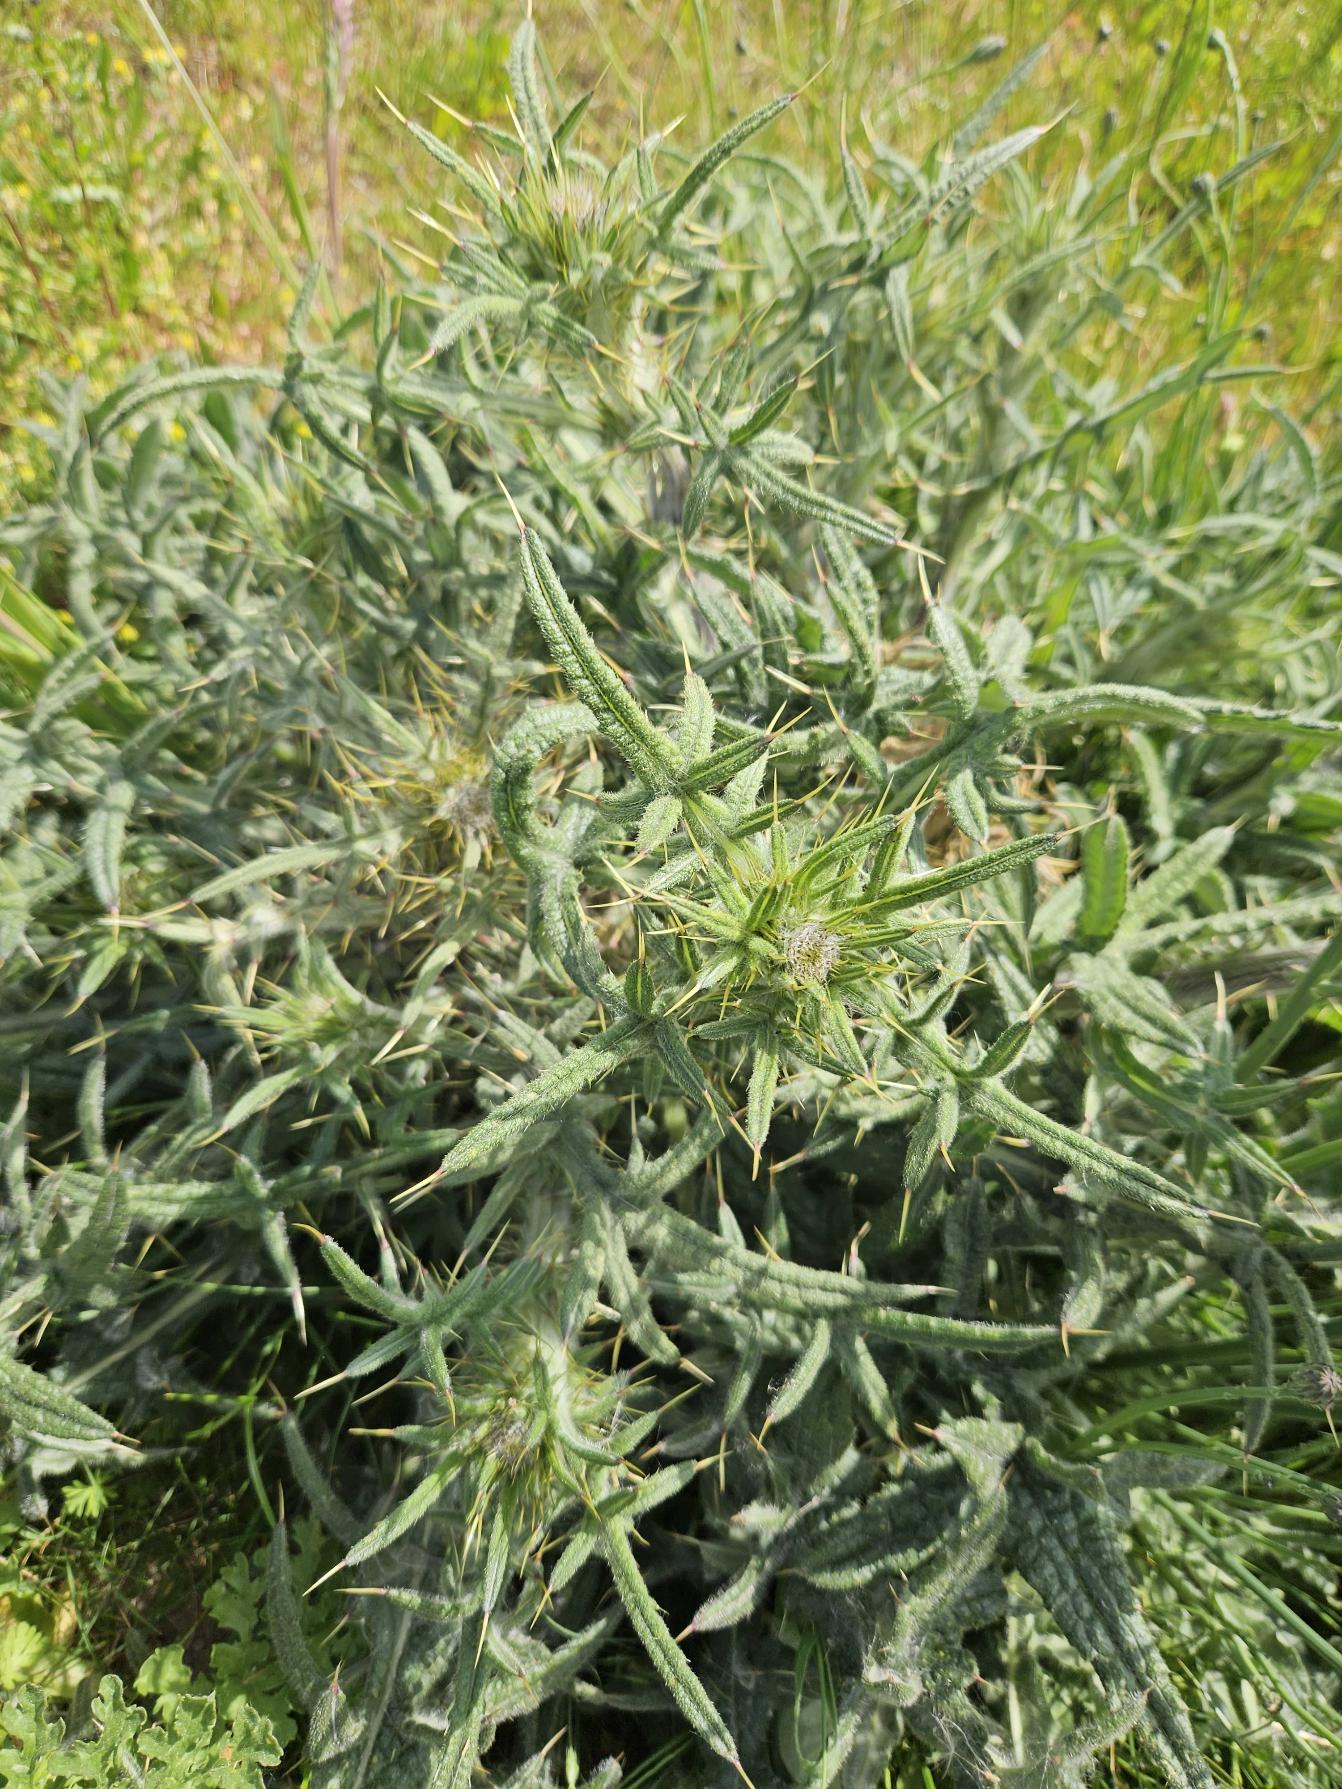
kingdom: Plantae
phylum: Tracheophyta
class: Magnoliopsida
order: Asterales
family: Asteraceae
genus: Cirsium
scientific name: Cirsium vulgare
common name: Horse-tidsel
